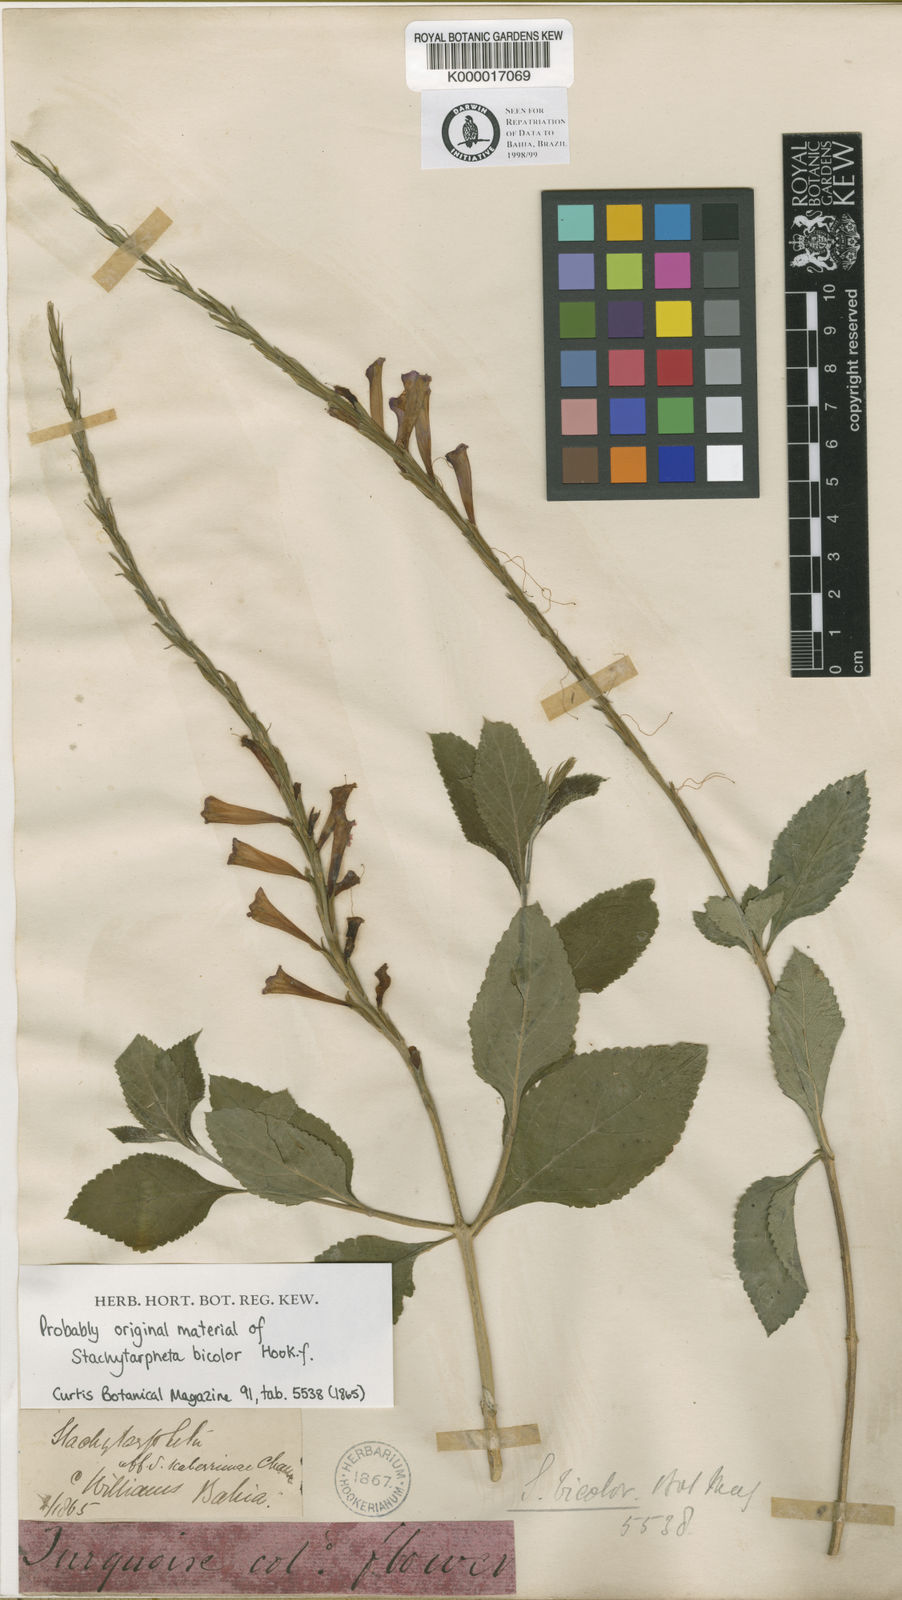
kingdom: Plantae
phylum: Tracheophyta
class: Magnoliopsida
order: Lamiales
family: Verbenaceae
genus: Stachytarpheta
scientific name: Stachytarpheta bicolor
